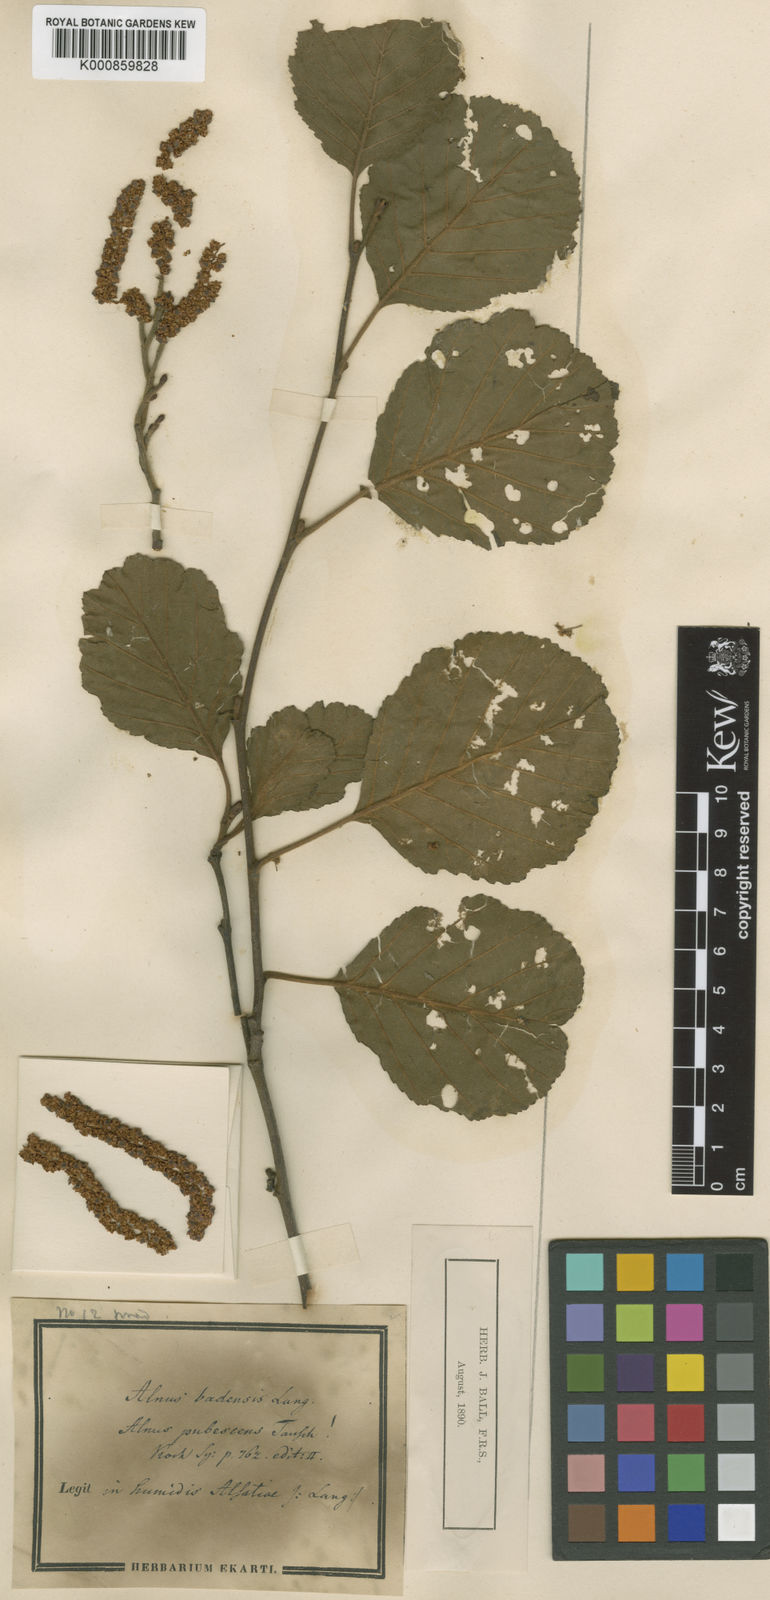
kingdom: Plantae
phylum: Tracheophyta
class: Magnoliopsida
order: Fagales
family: Betulaceae
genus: Alnus
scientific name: Alnus glutinosa
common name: Black alder
